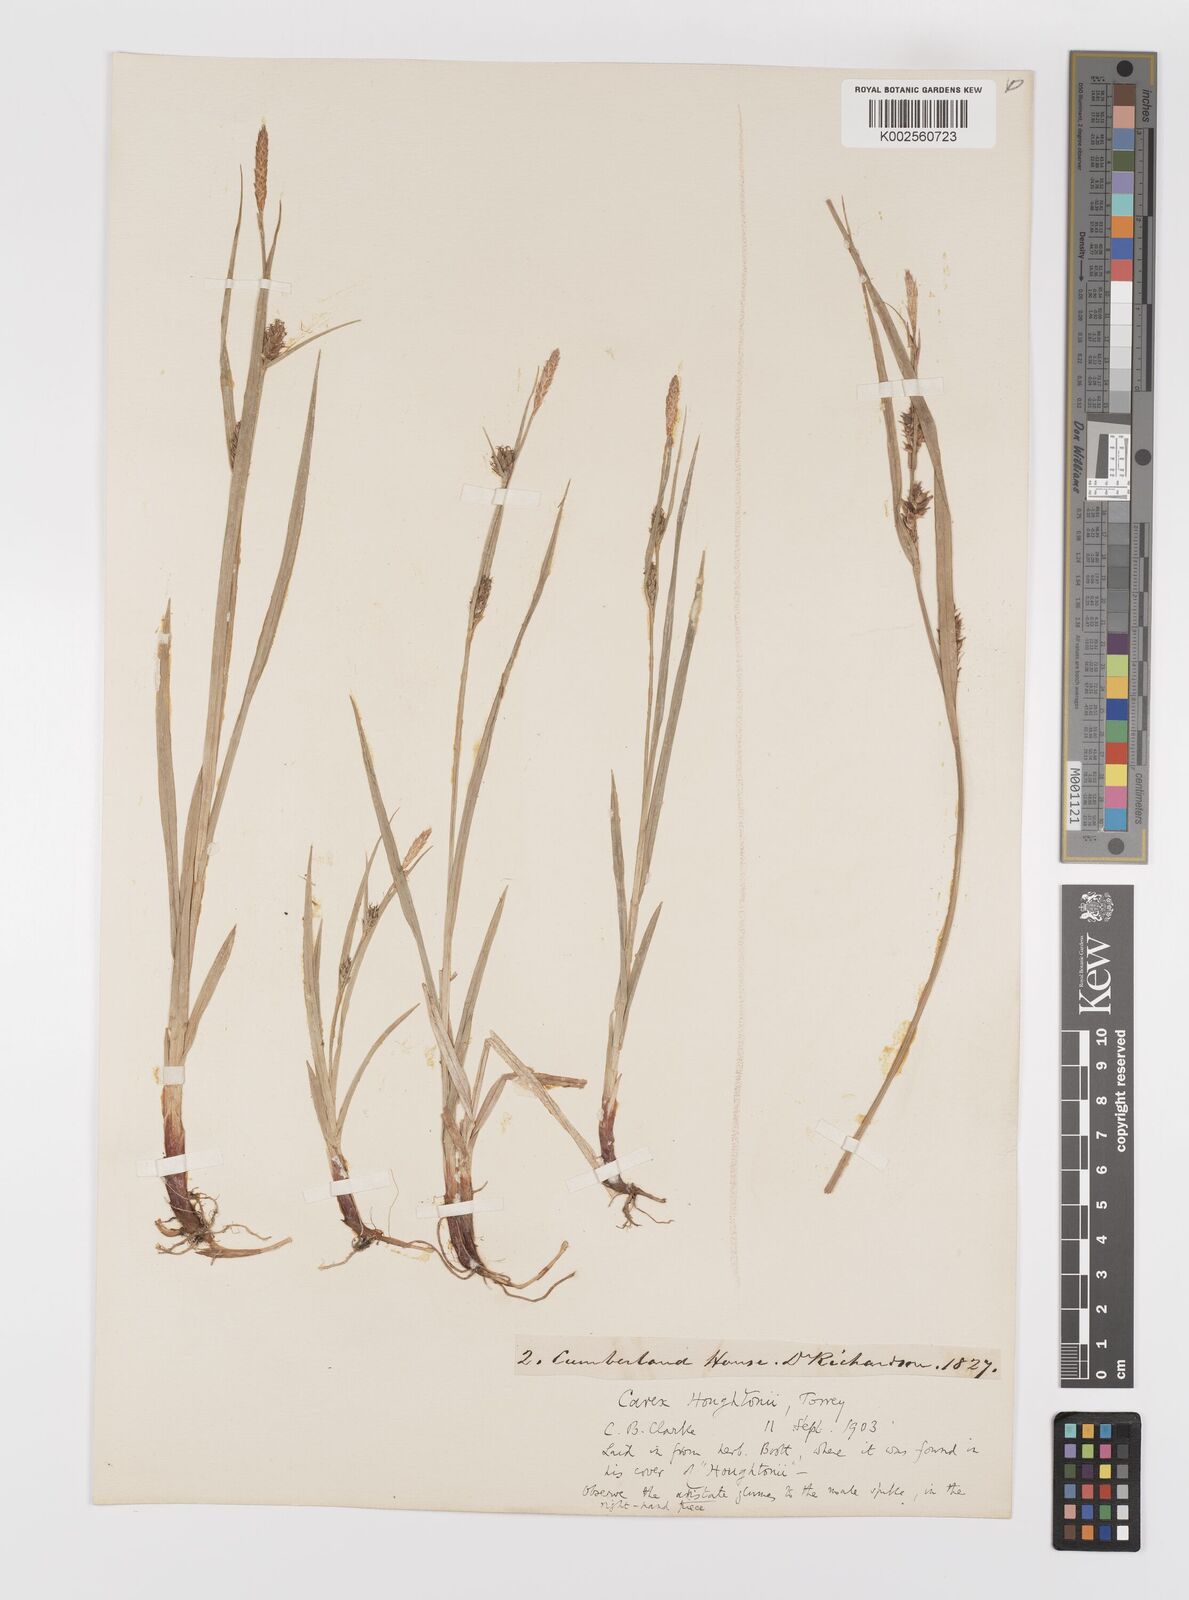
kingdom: Plantae
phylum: Tracheophyta
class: Liliopsida
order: Poales
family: Cyperaceae
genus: Carex
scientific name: Carex houghtoniana
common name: Houghton's sedge
